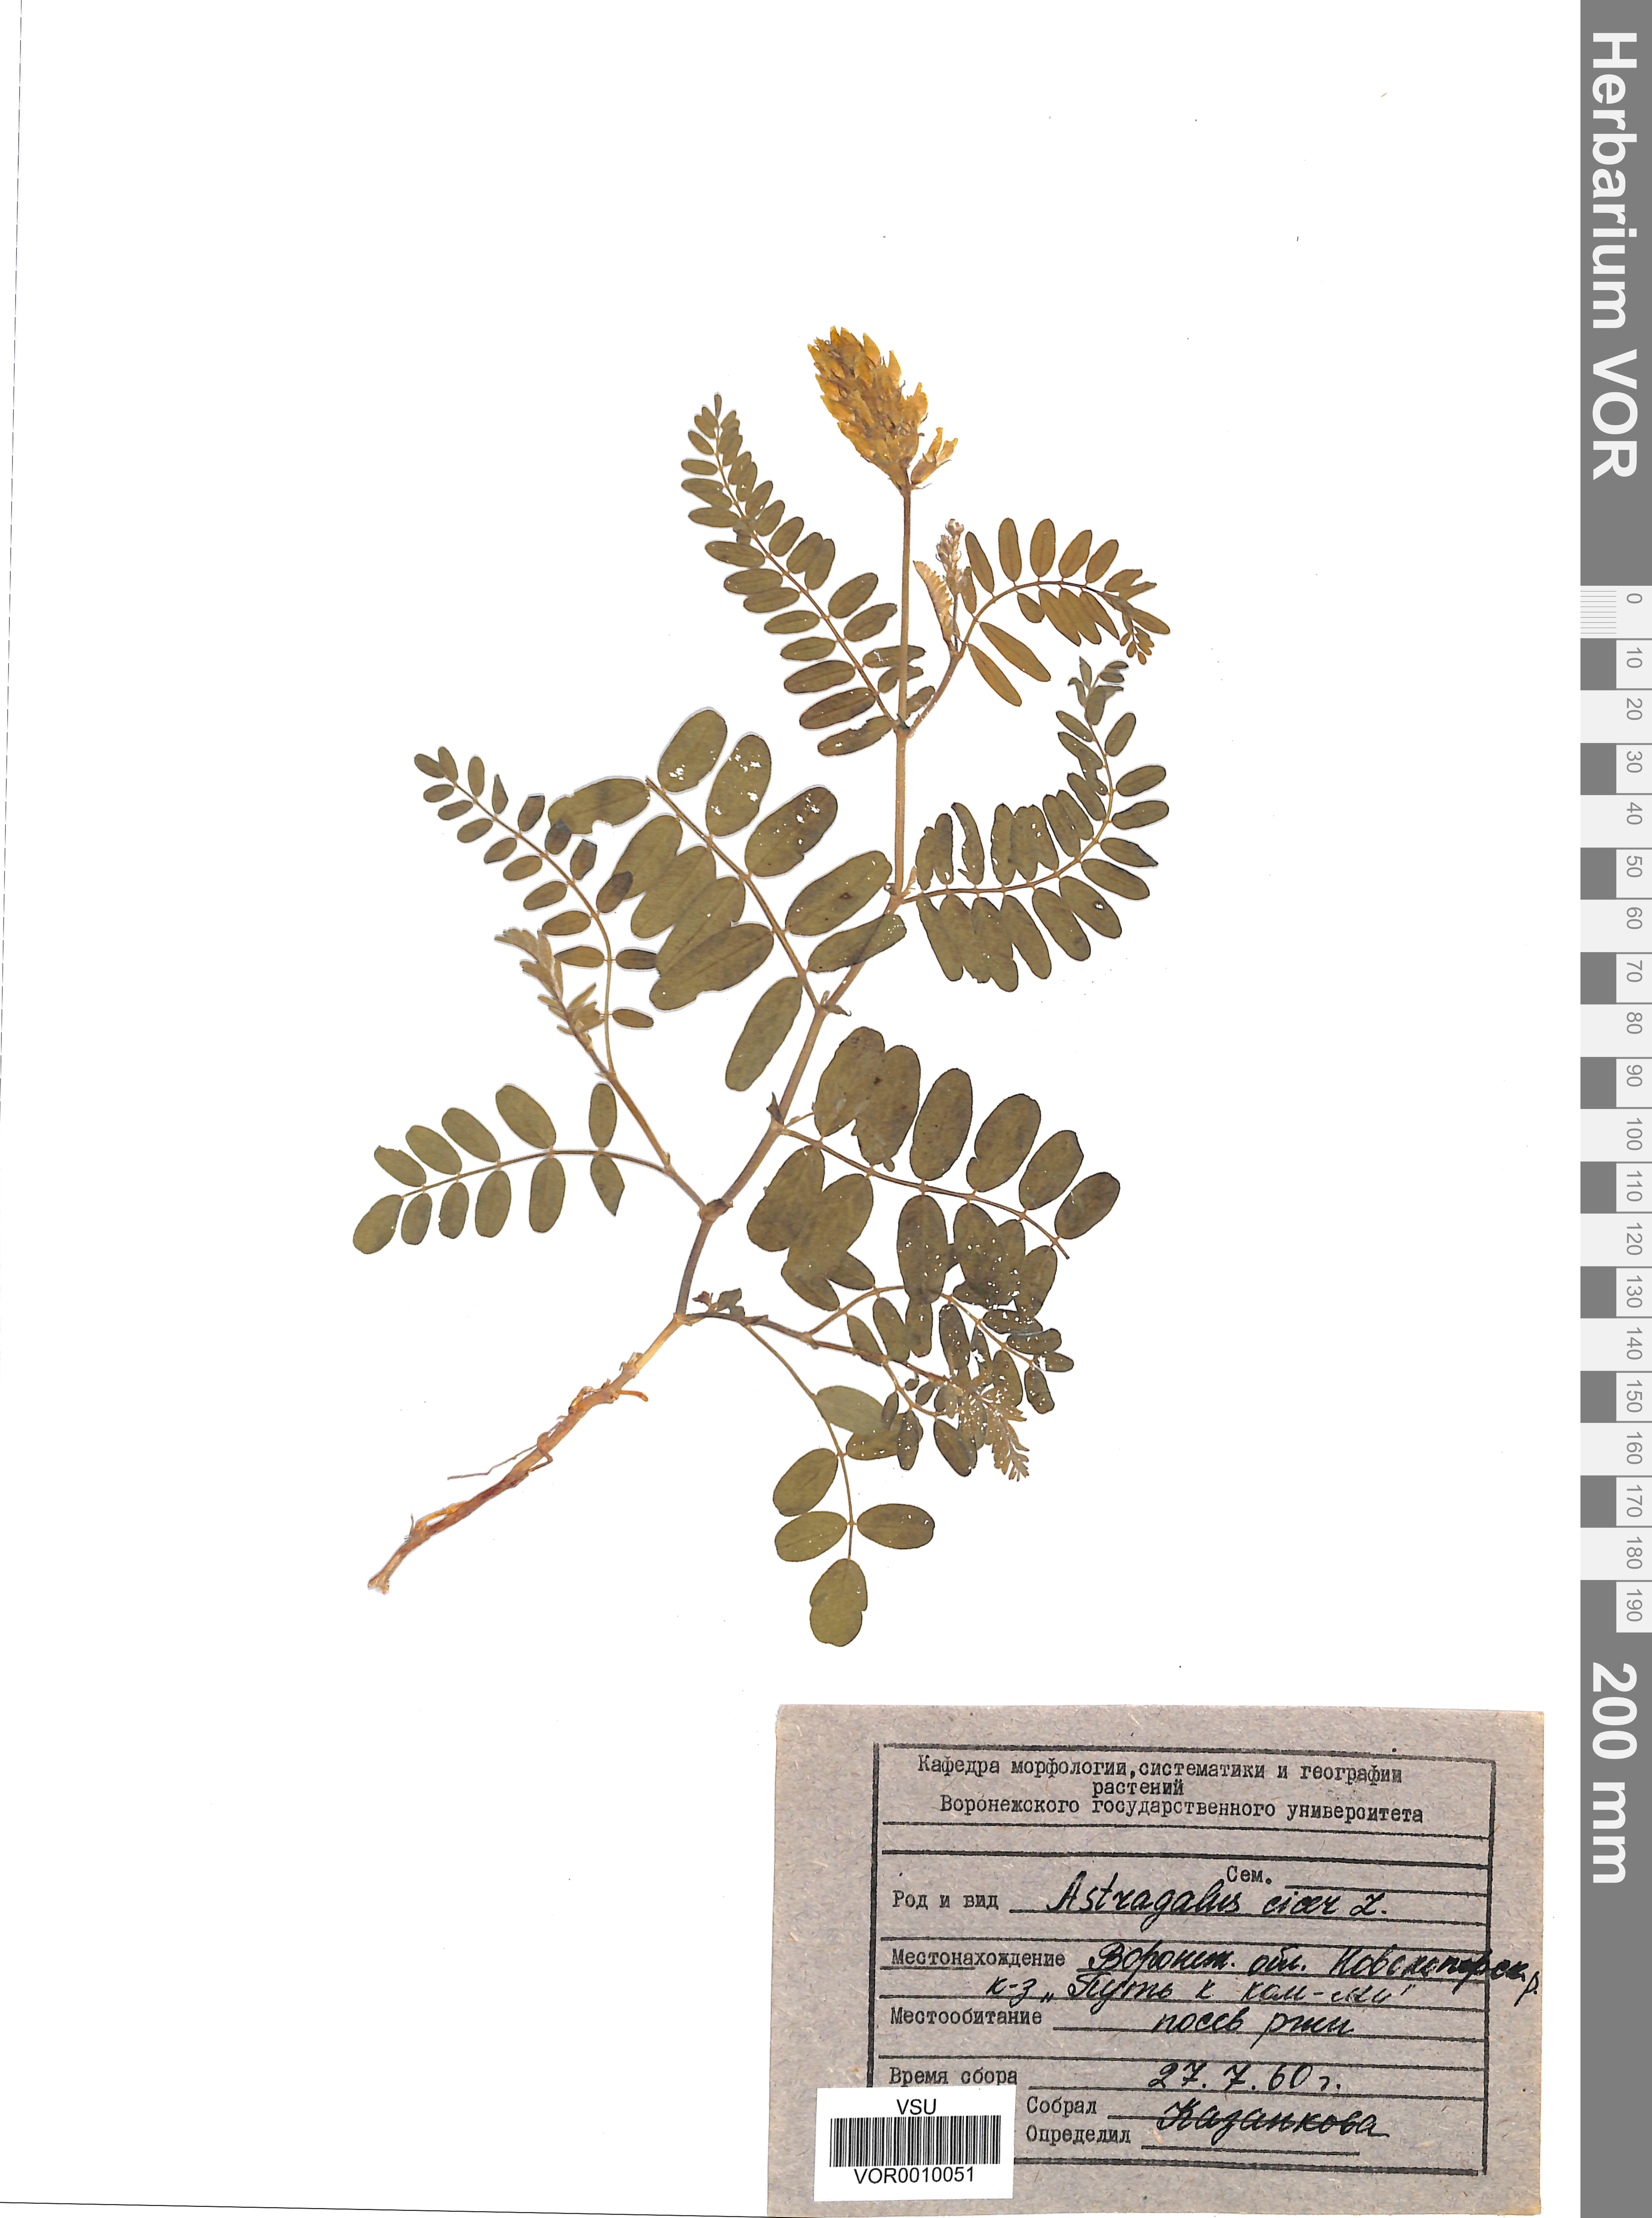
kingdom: Plantae
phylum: Tracheophyta
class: Magnoliopsida
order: Fabales
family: Fabaceae
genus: Astragalus
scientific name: Astragalus cicer
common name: Chick-pea milk-vetch
